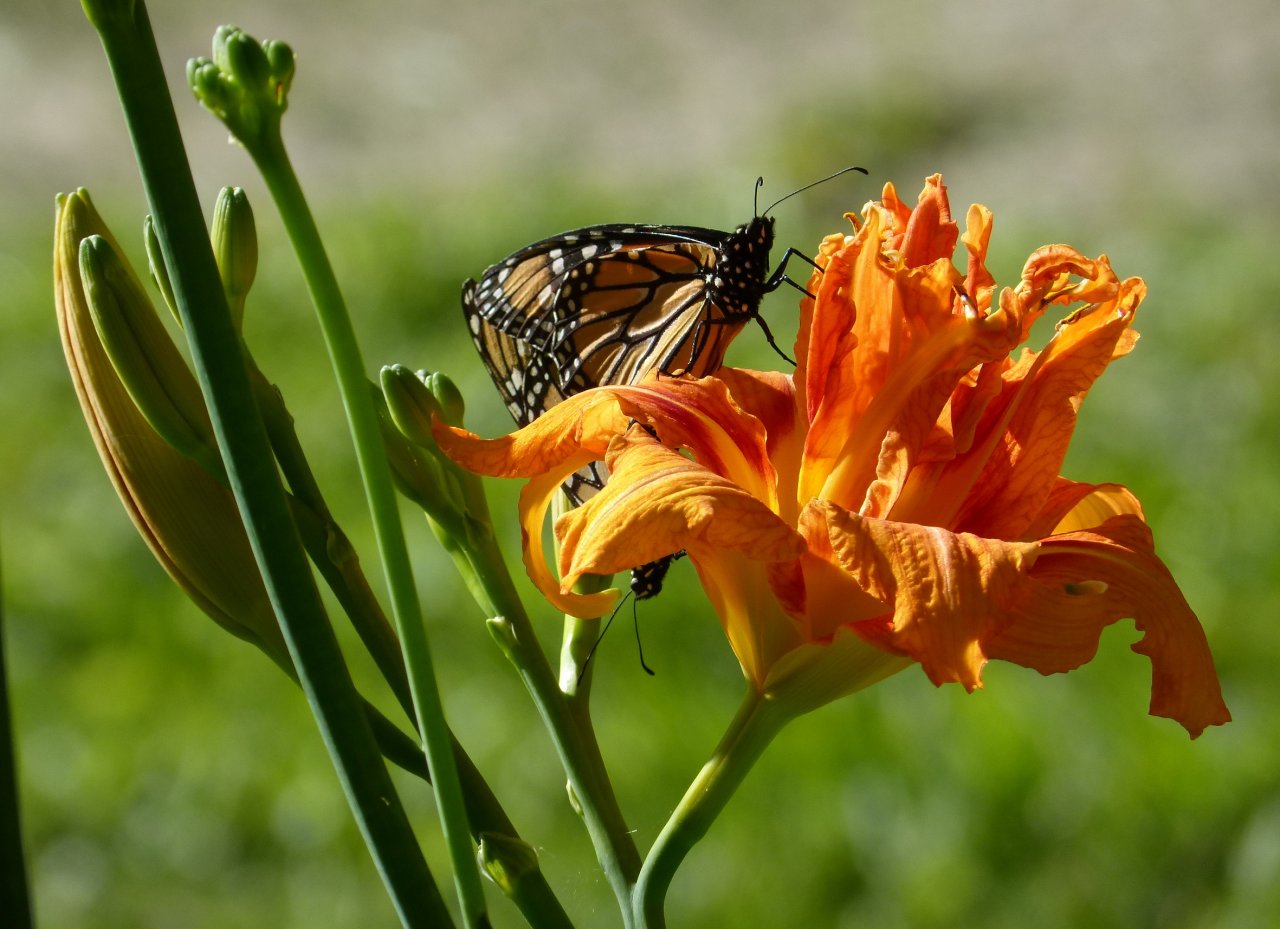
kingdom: Animalia
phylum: Arthropoda
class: Insecta
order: Lepidoptera
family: Nymphalidae
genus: Danaus
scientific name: Danaus plexippus
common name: Monarch
